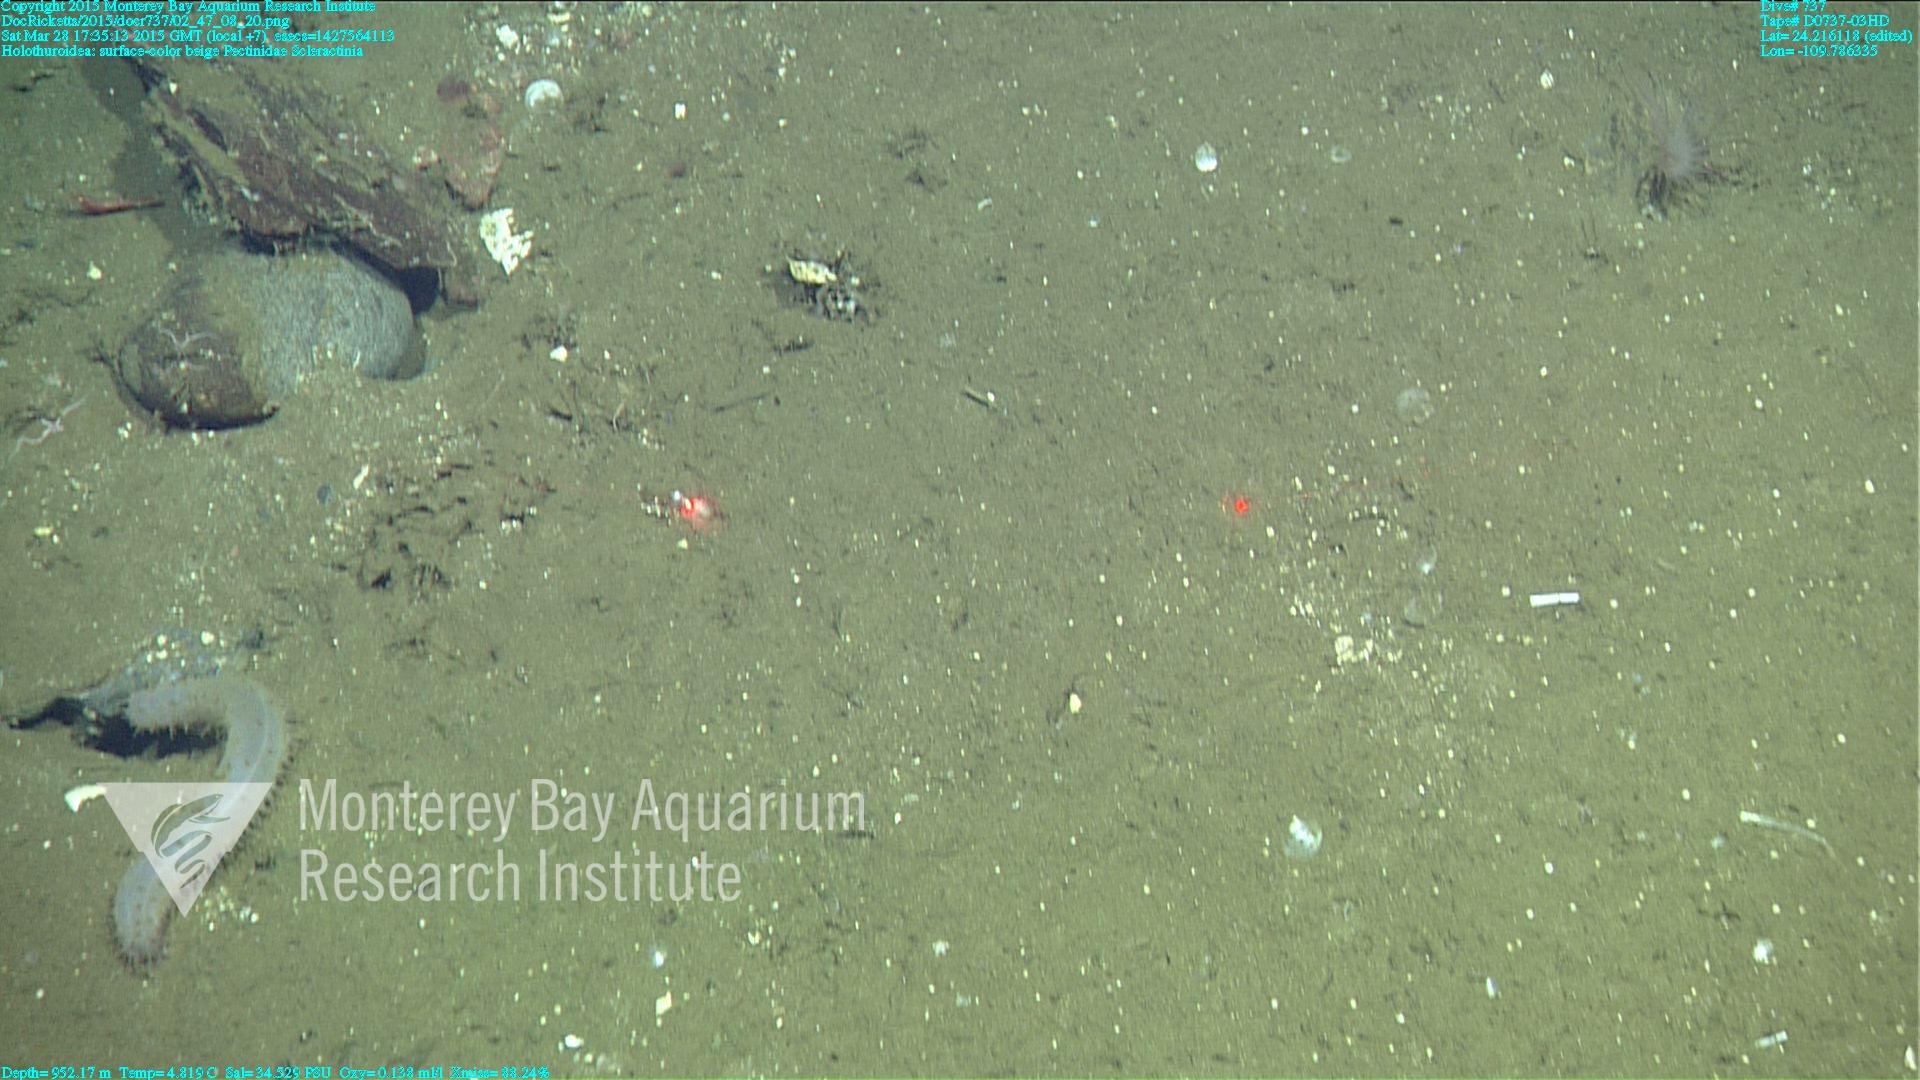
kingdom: Animalia
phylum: Cnidaria
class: Anthozoa
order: Scleractinia
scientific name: Scleractinia
